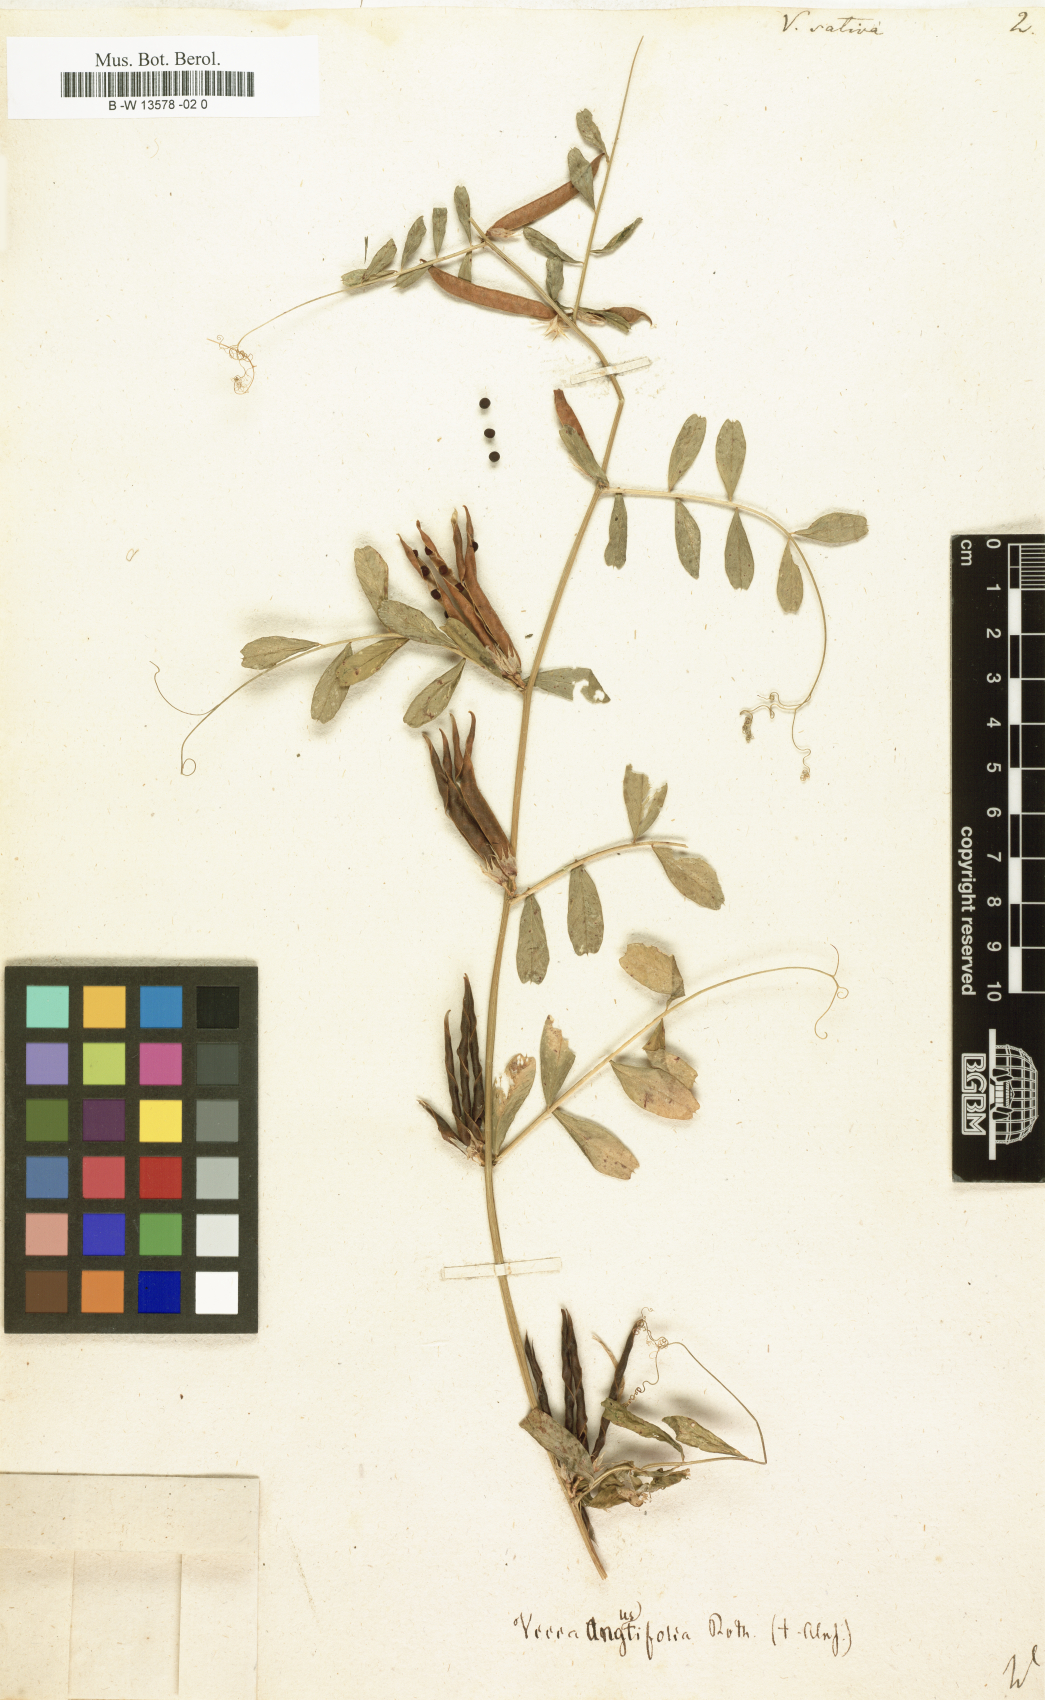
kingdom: Plantae
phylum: Tracheophyta
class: Magnoliopsida
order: Fabales
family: Fabaceae
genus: Vicia
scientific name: Vicia sativa
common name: Garden vetch
